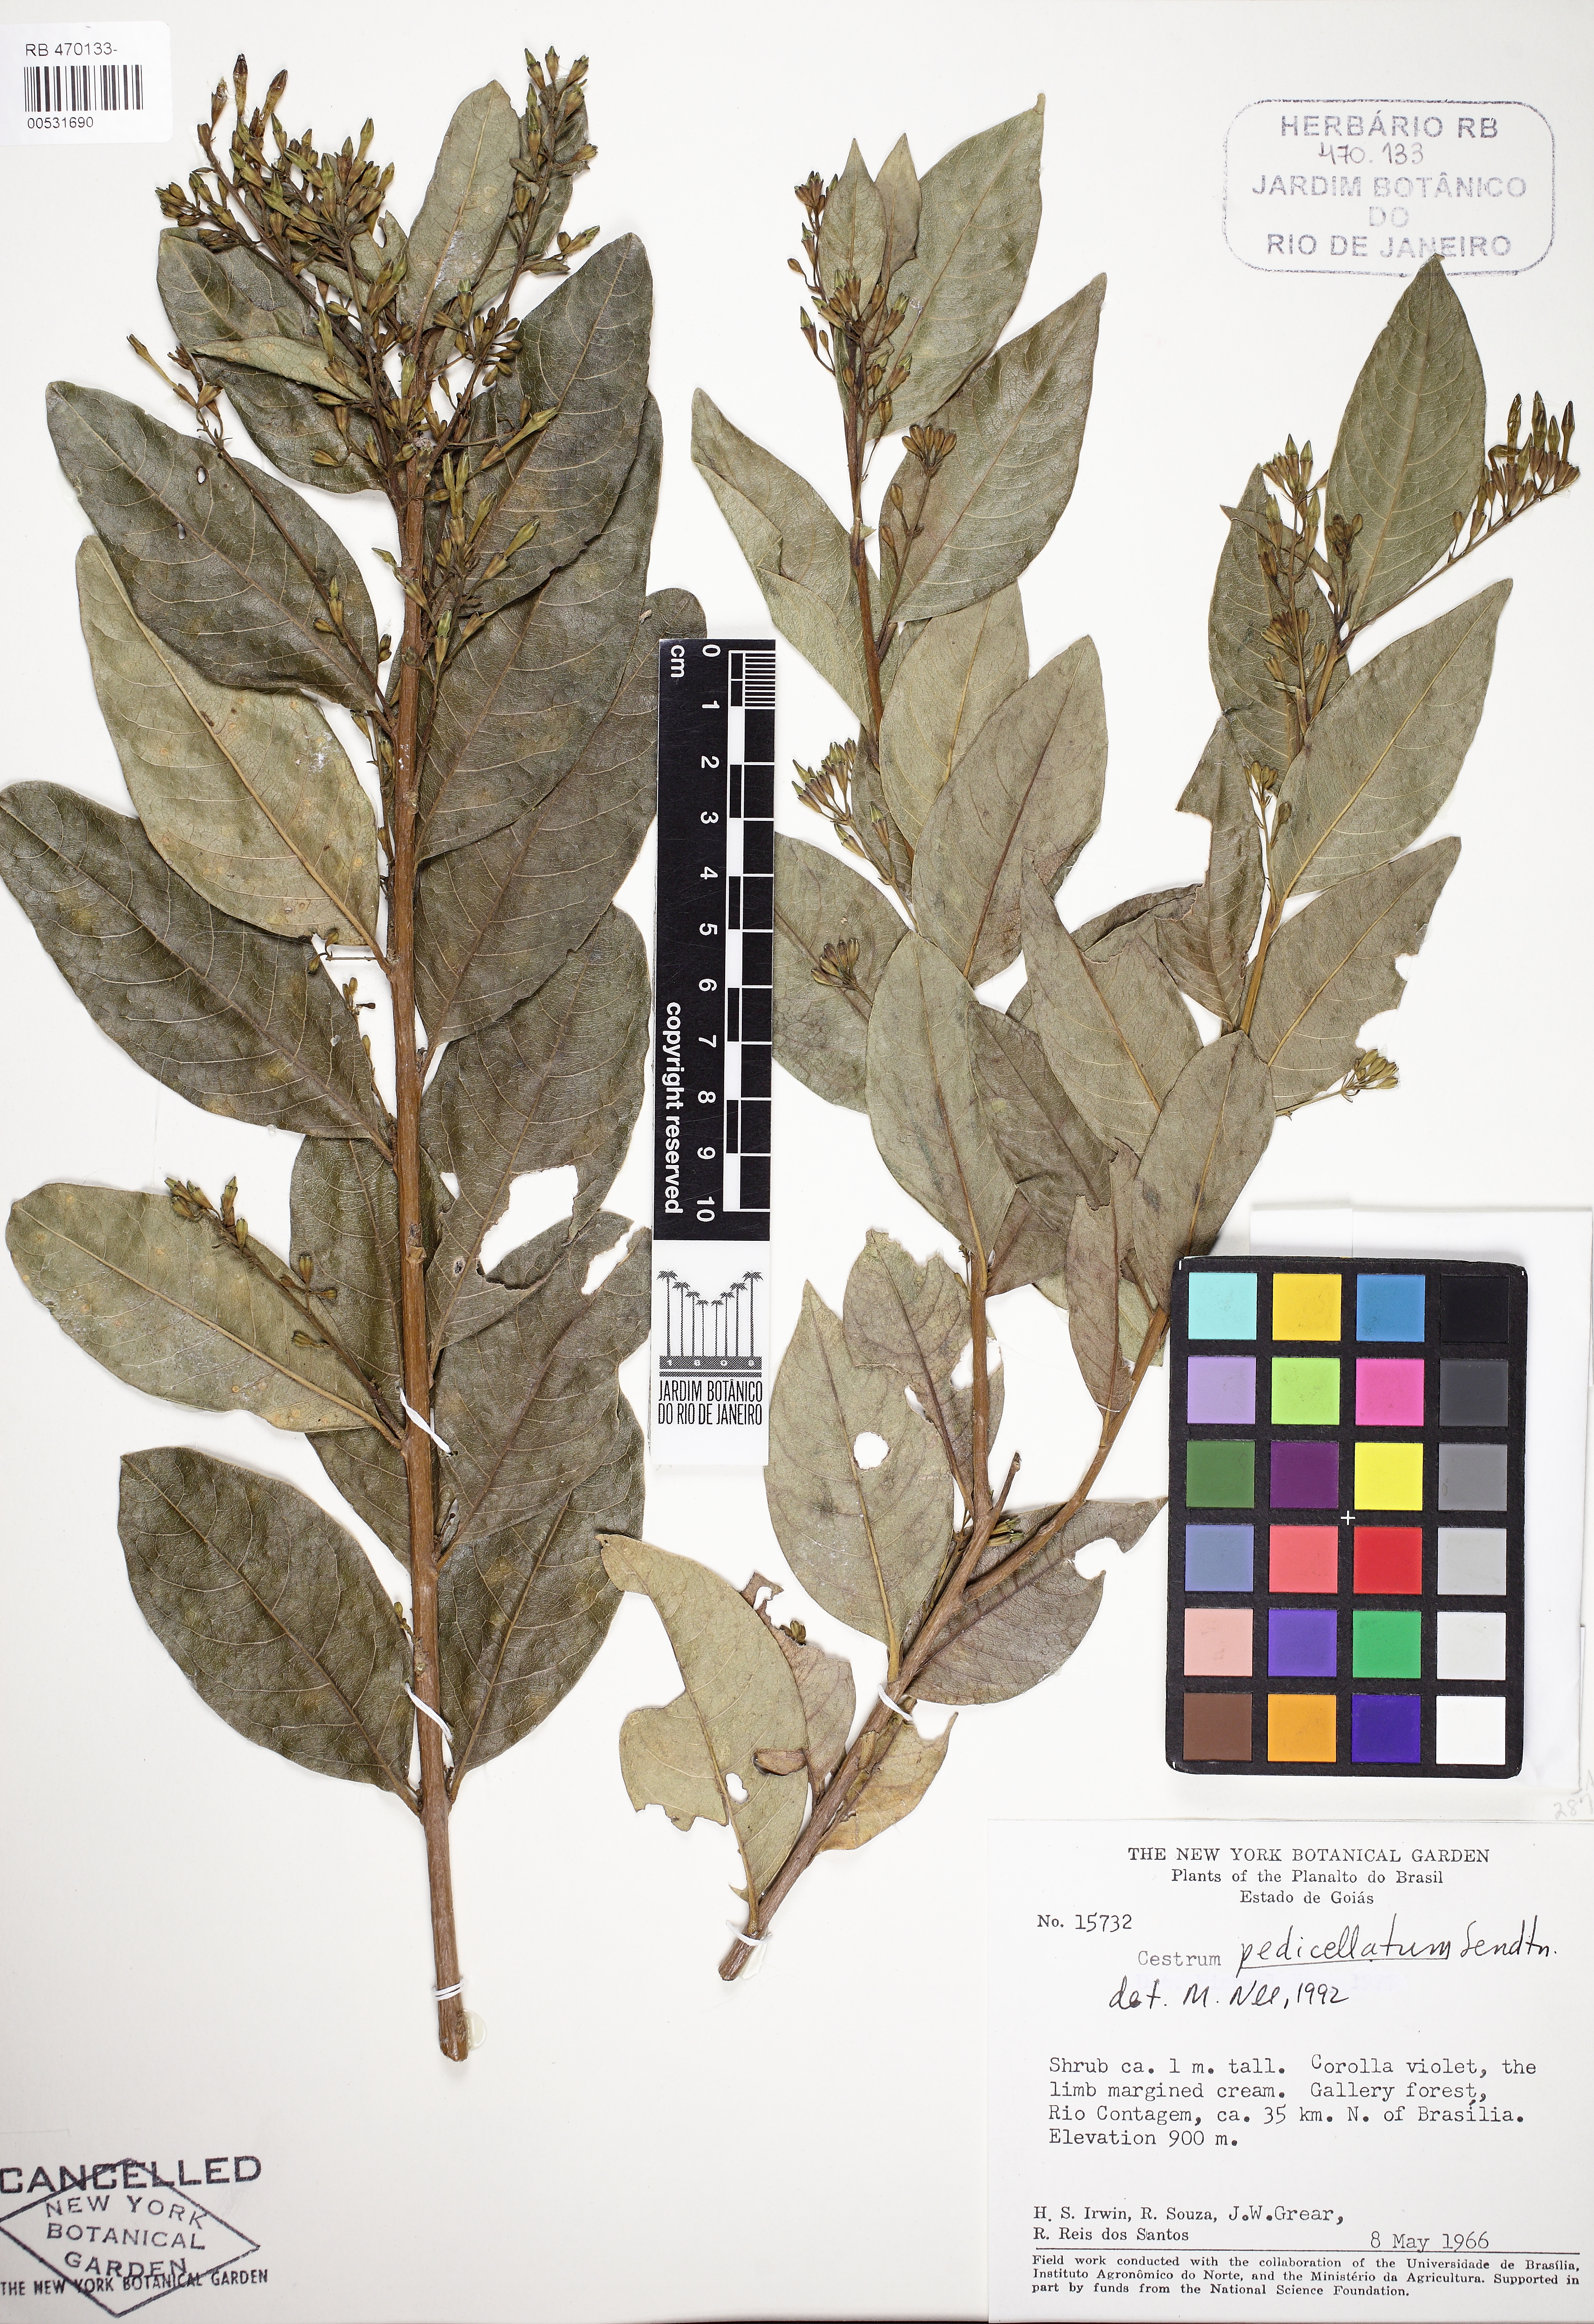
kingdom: Plantae
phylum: Tracheophyta
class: Magnoliopsida
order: Solanales
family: Solanaceae
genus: Cestrum
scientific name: Cestrum pedicellatum
